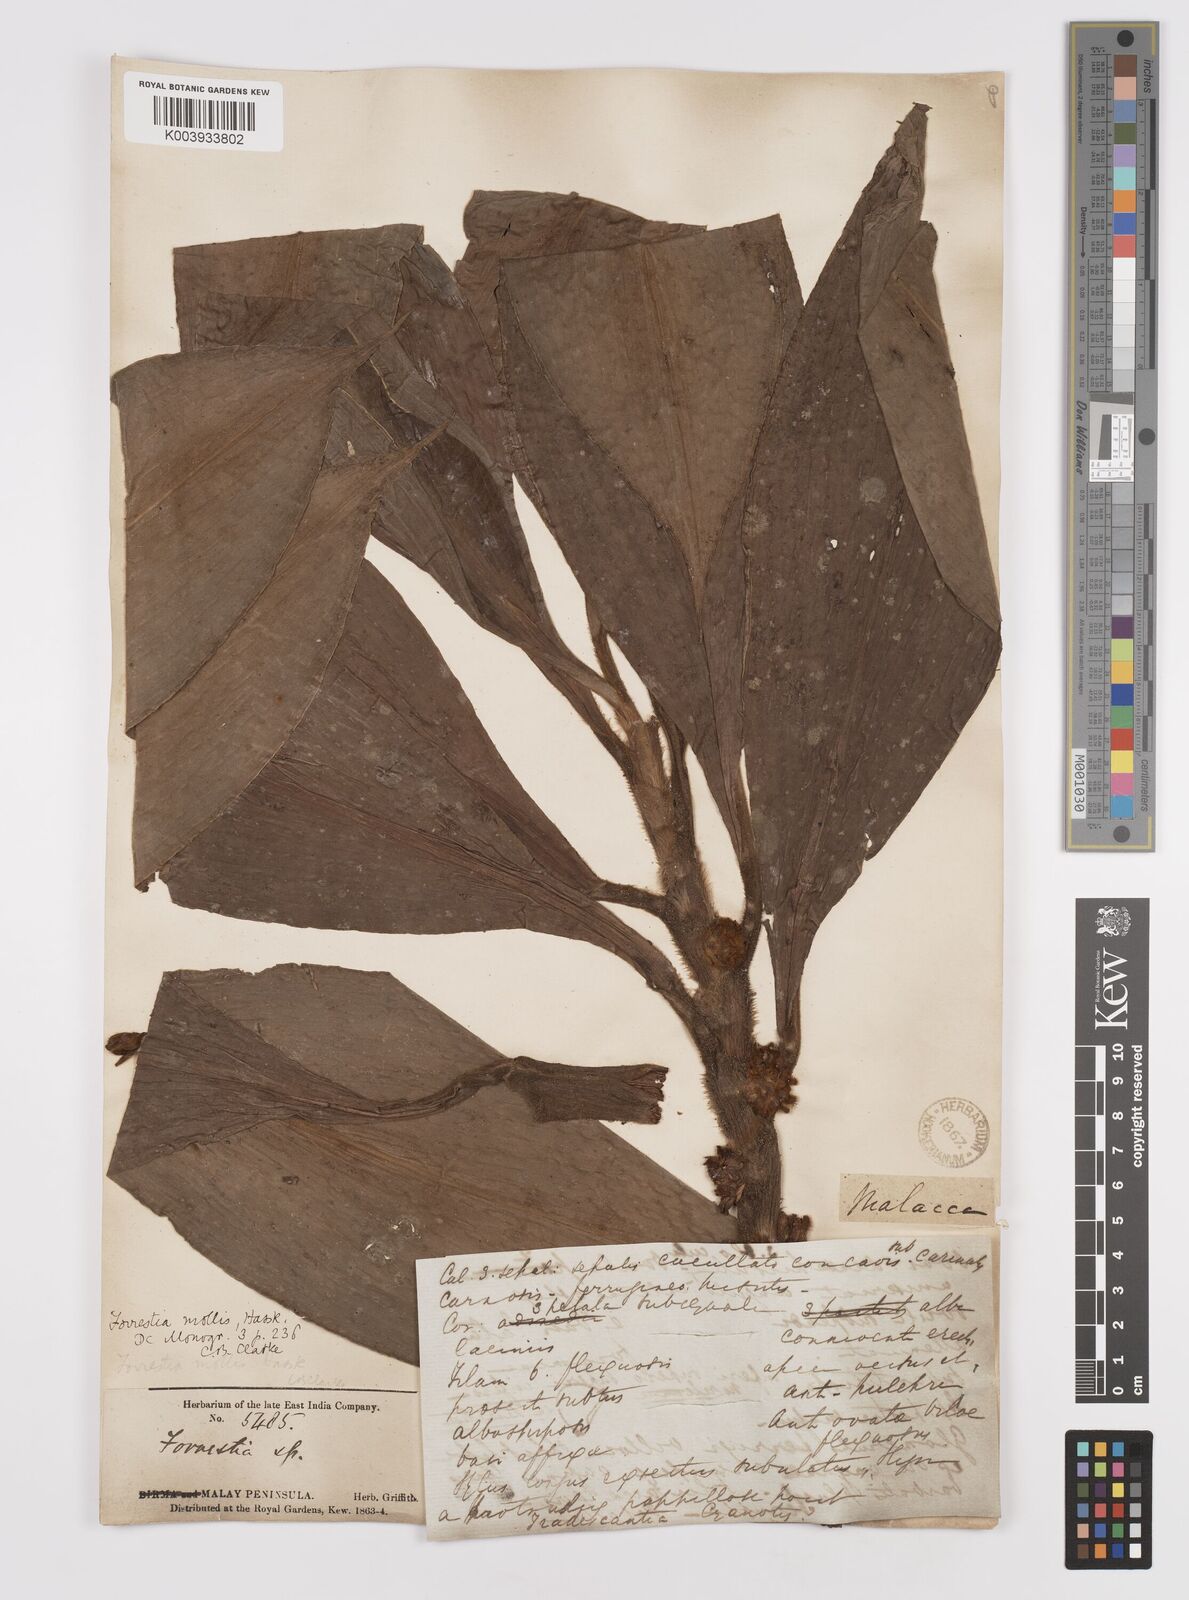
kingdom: Plantae
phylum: Tracheophyta
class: Liliopsida
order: Commelinales
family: Commelinaceae
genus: Amischotolype
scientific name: Amischotolype mollissima
